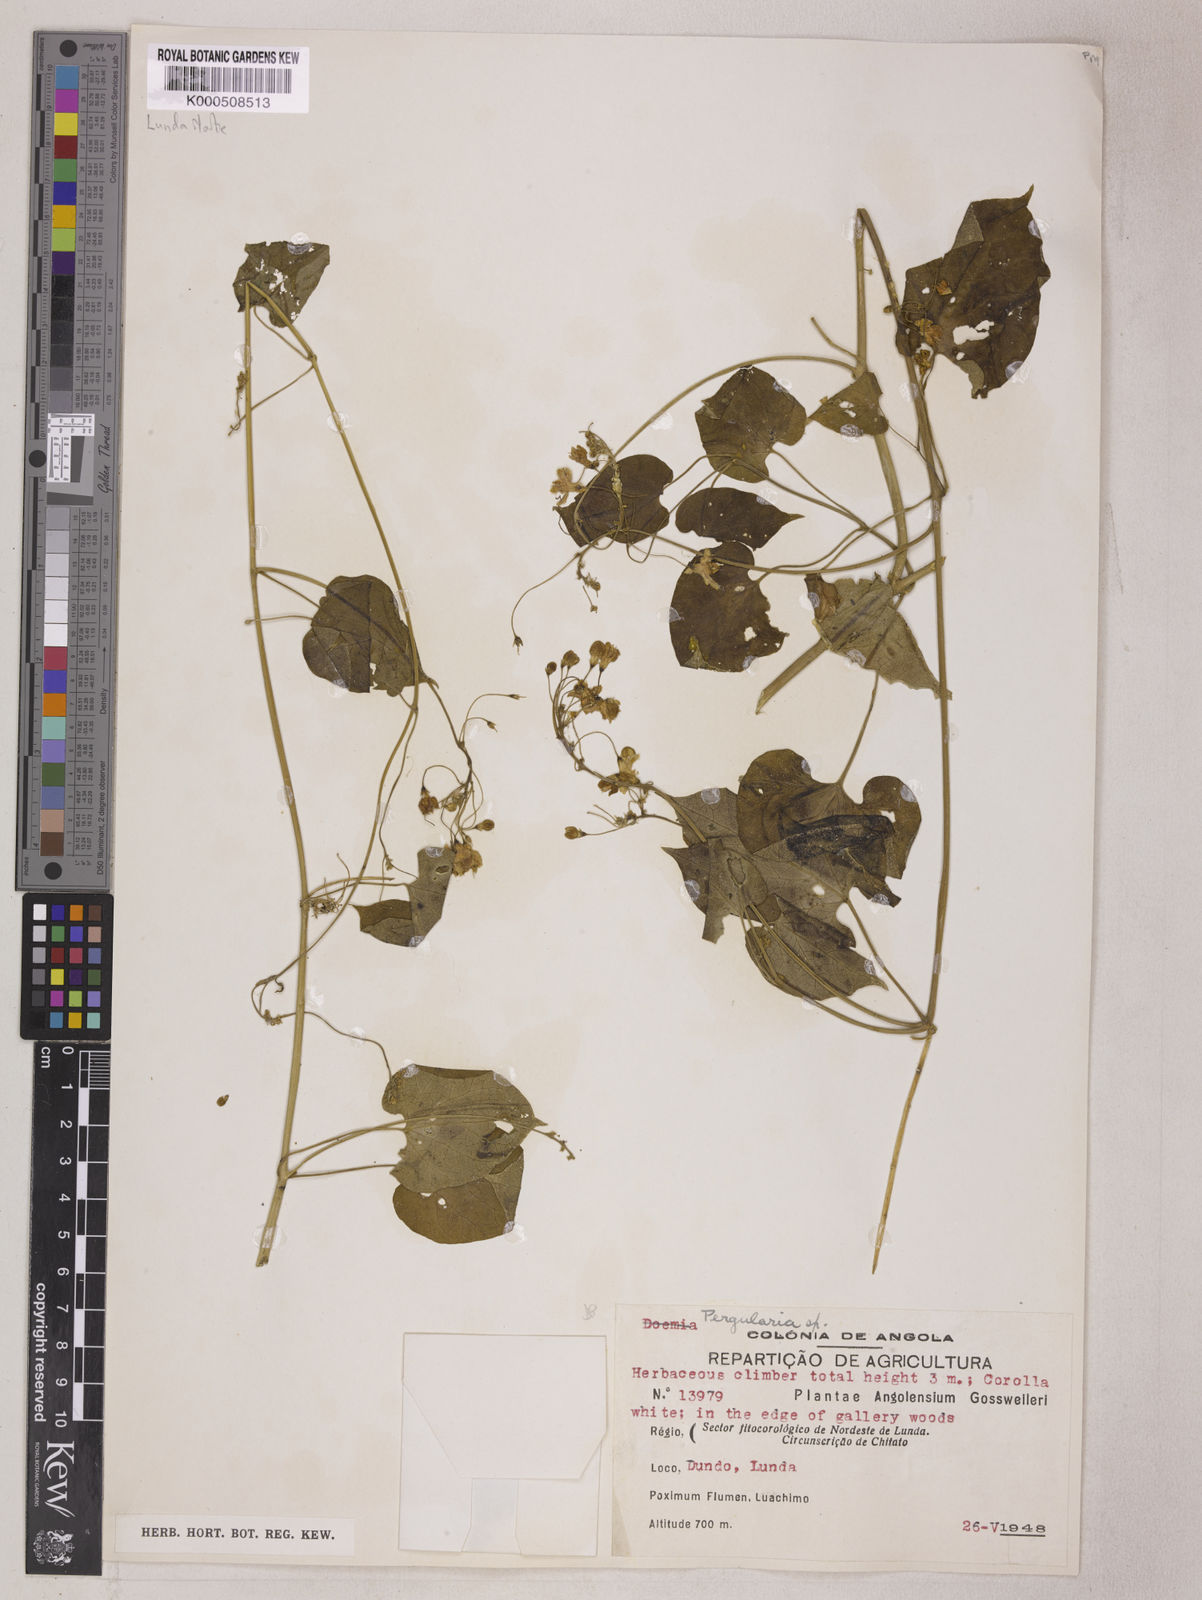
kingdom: Plantae
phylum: Tracheophyta
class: Magnoliopsida
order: Gentianales
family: Apocynaceae
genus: Pergularia
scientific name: Pergularia daemia
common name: Trellis-vine
